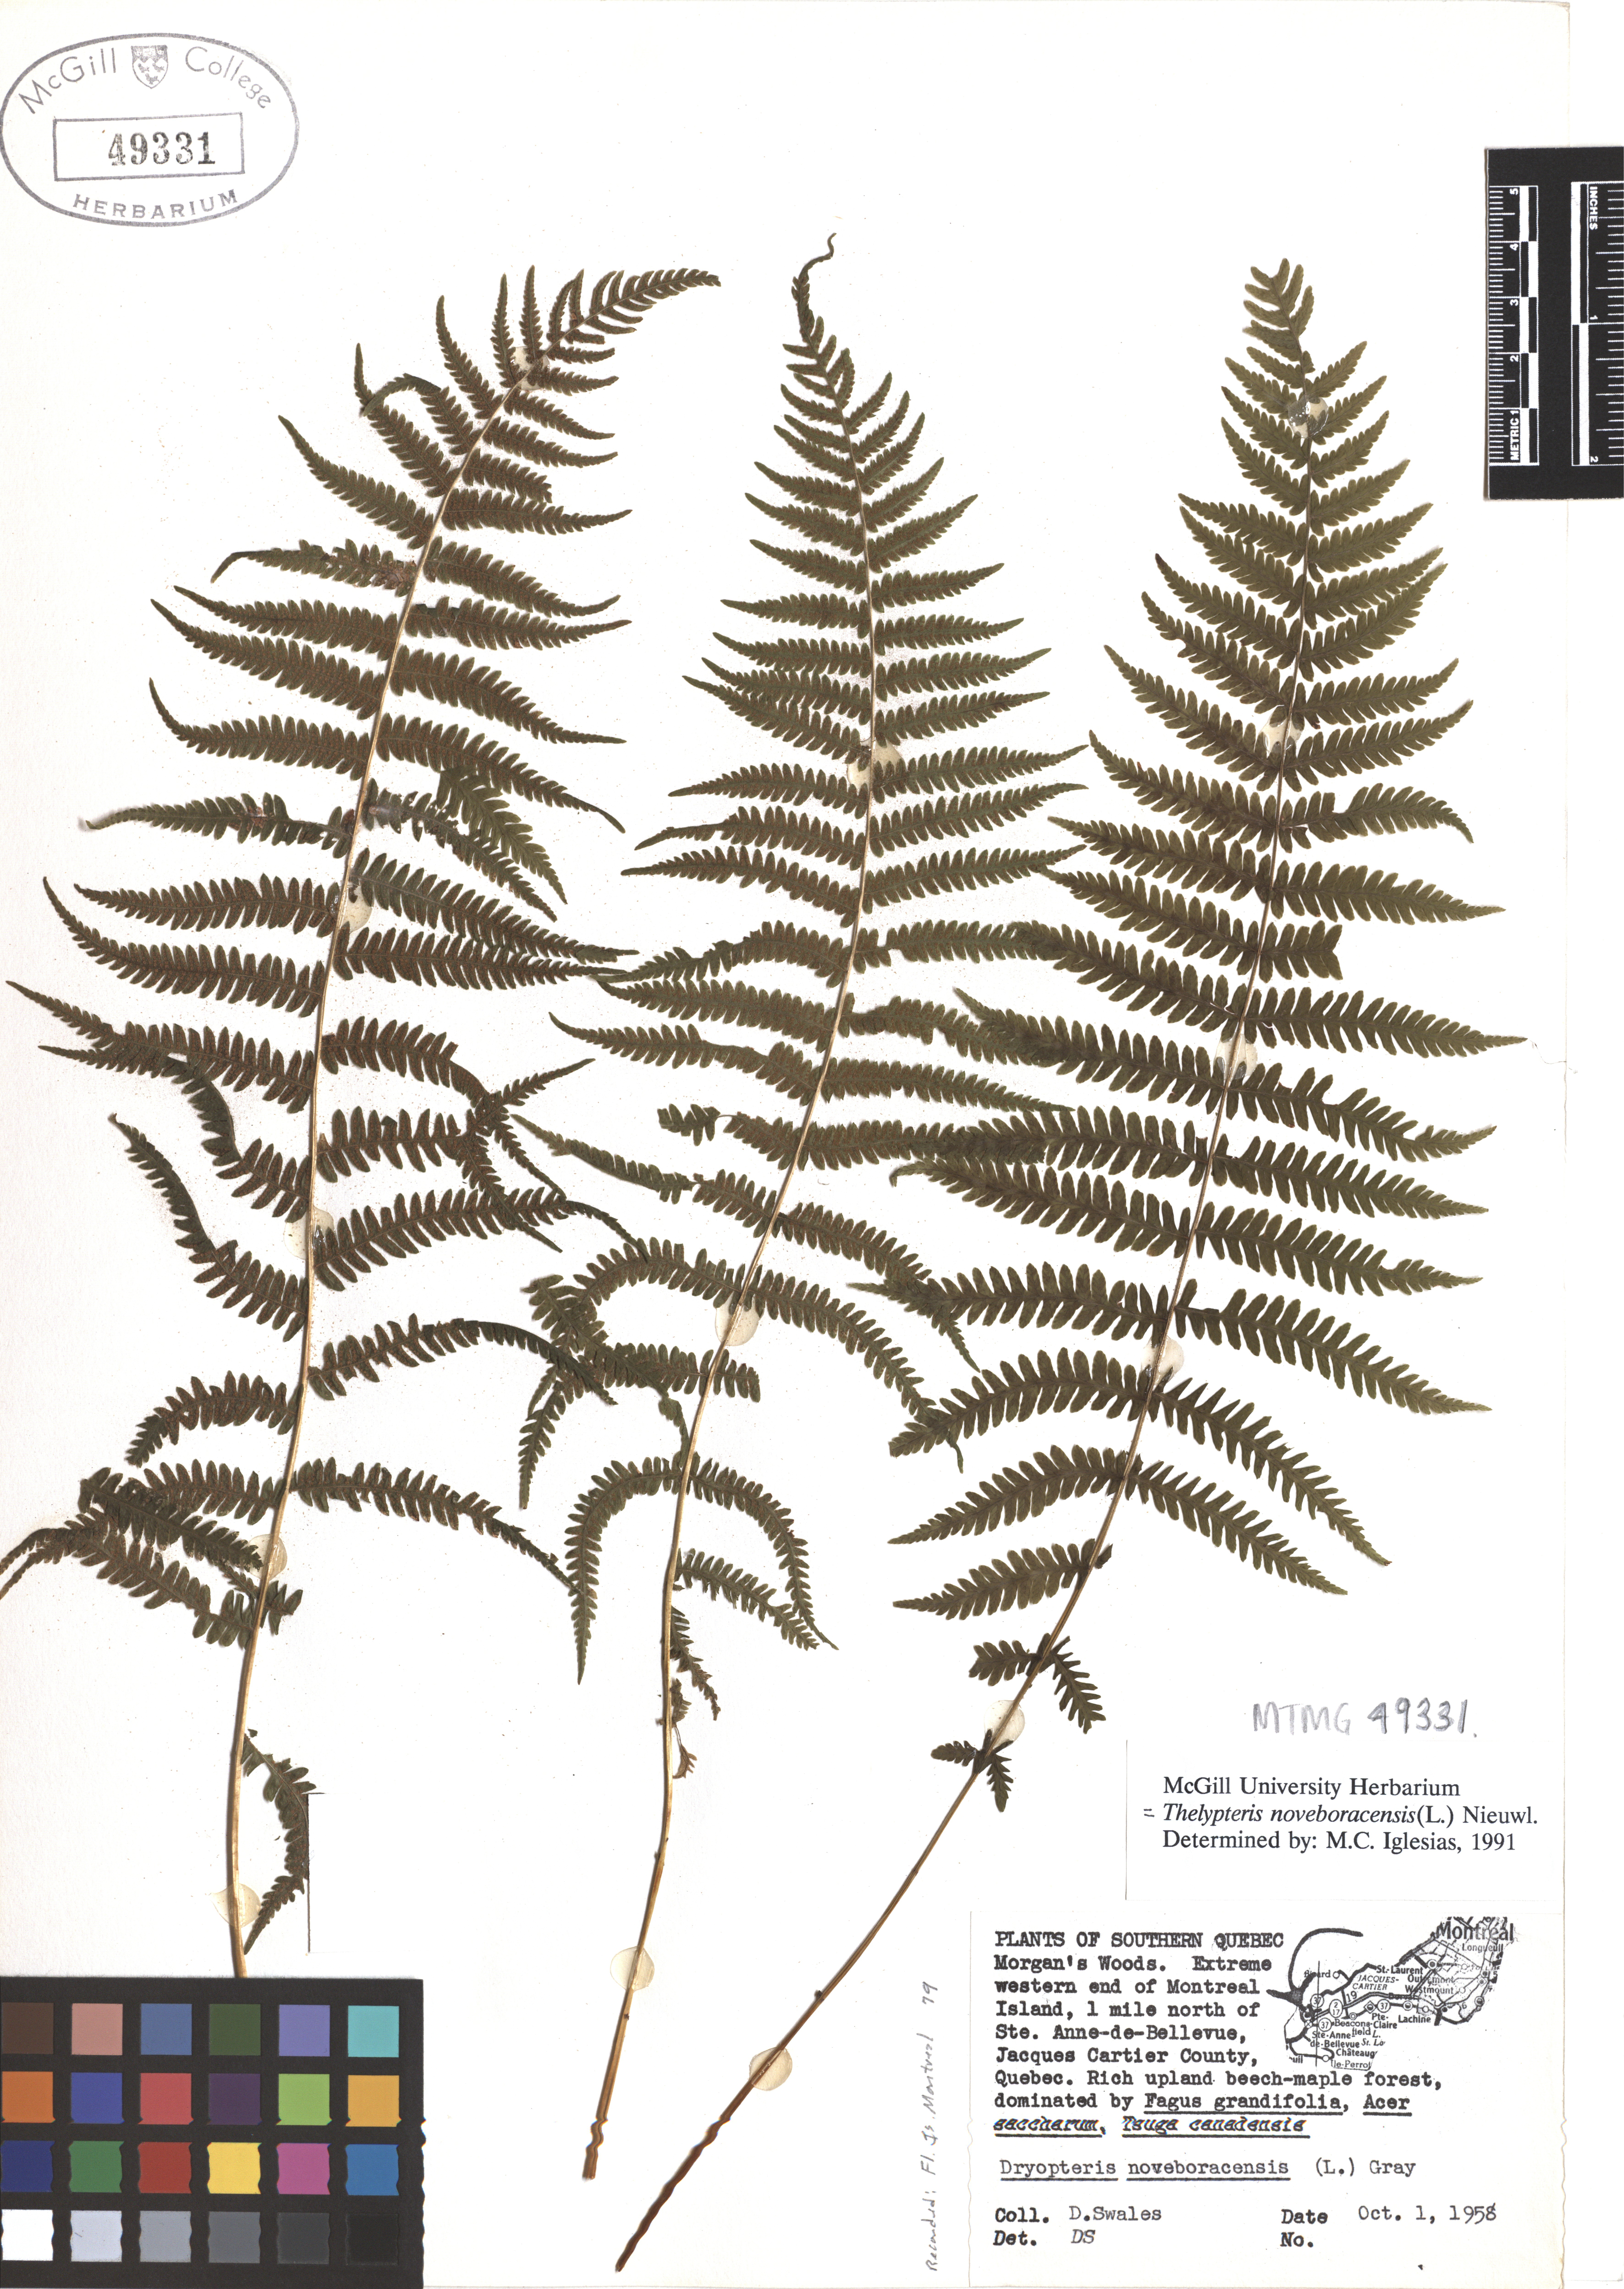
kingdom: Plantae
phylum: Tracheophyta
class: Polypodiopsida
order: Polypodiales
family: Thelypteridaceae
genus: Amauropelta
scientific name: Amauropelta noveboracensis
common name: New york fern
